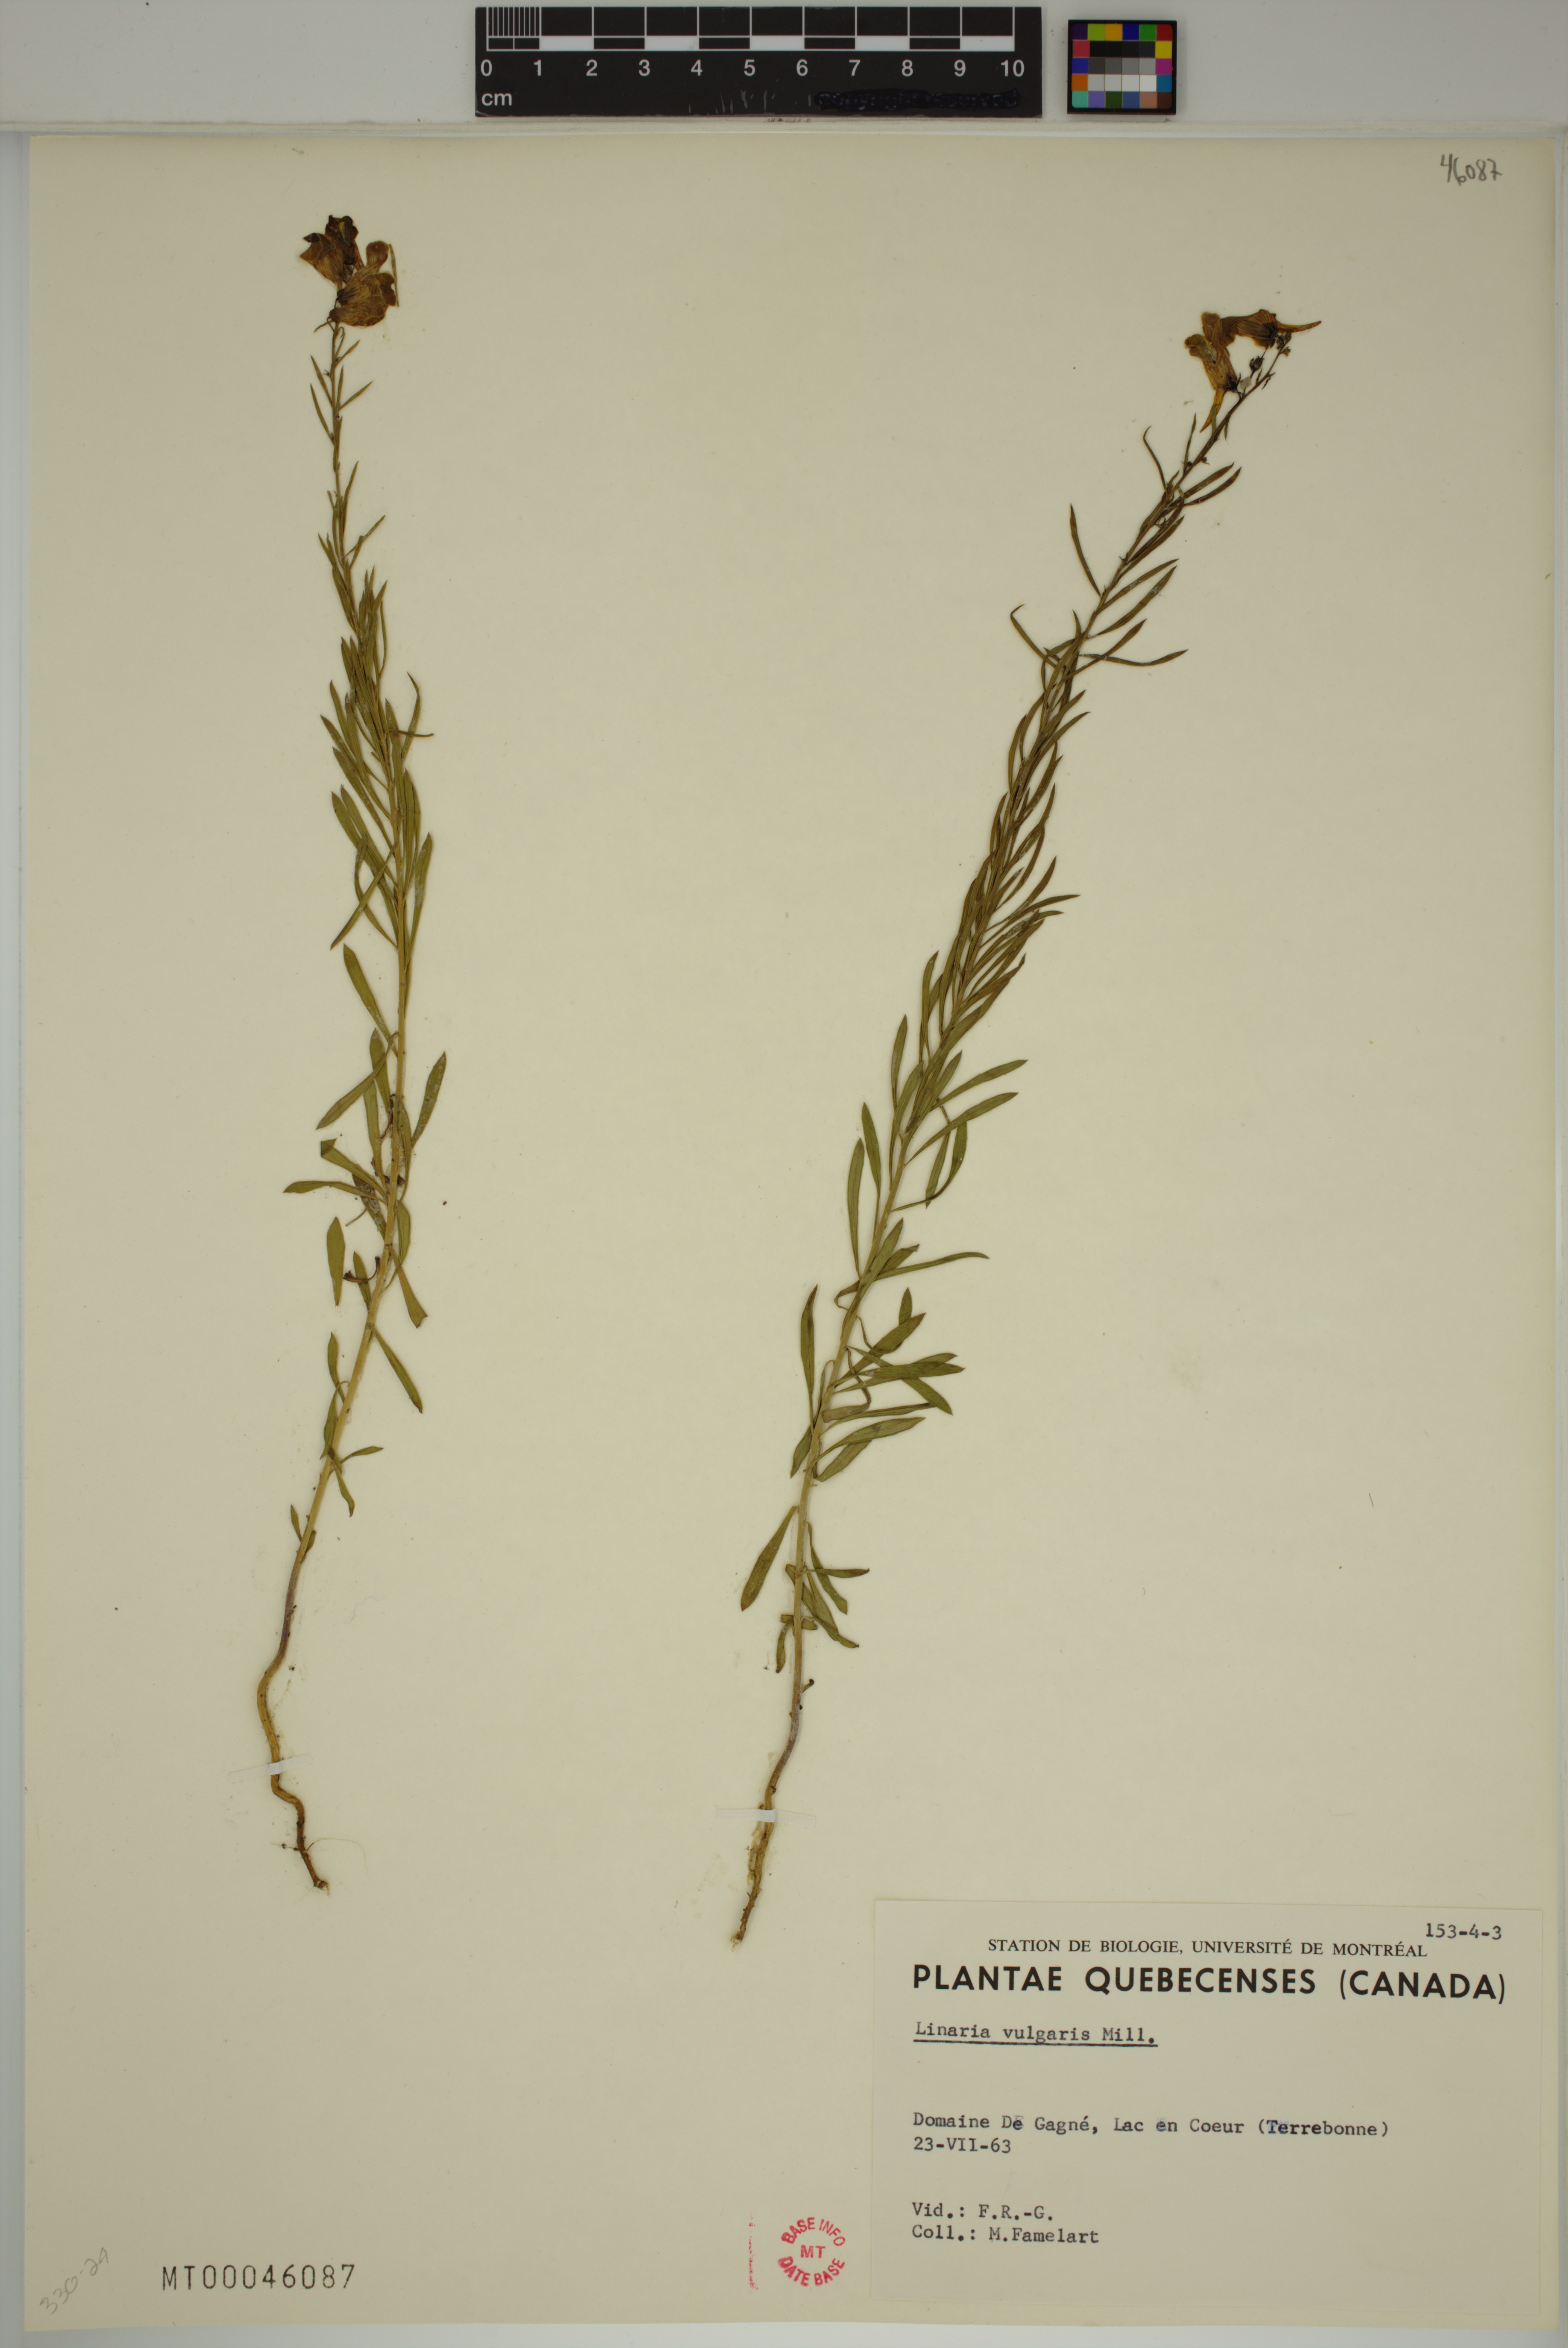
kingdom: Plantae
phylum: Tracheophyta
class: Magnoliopsida
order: Lamiales
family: Plantaginaceae
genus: Linaria
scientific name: Linaria vulgaris
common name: Butter and eggs
